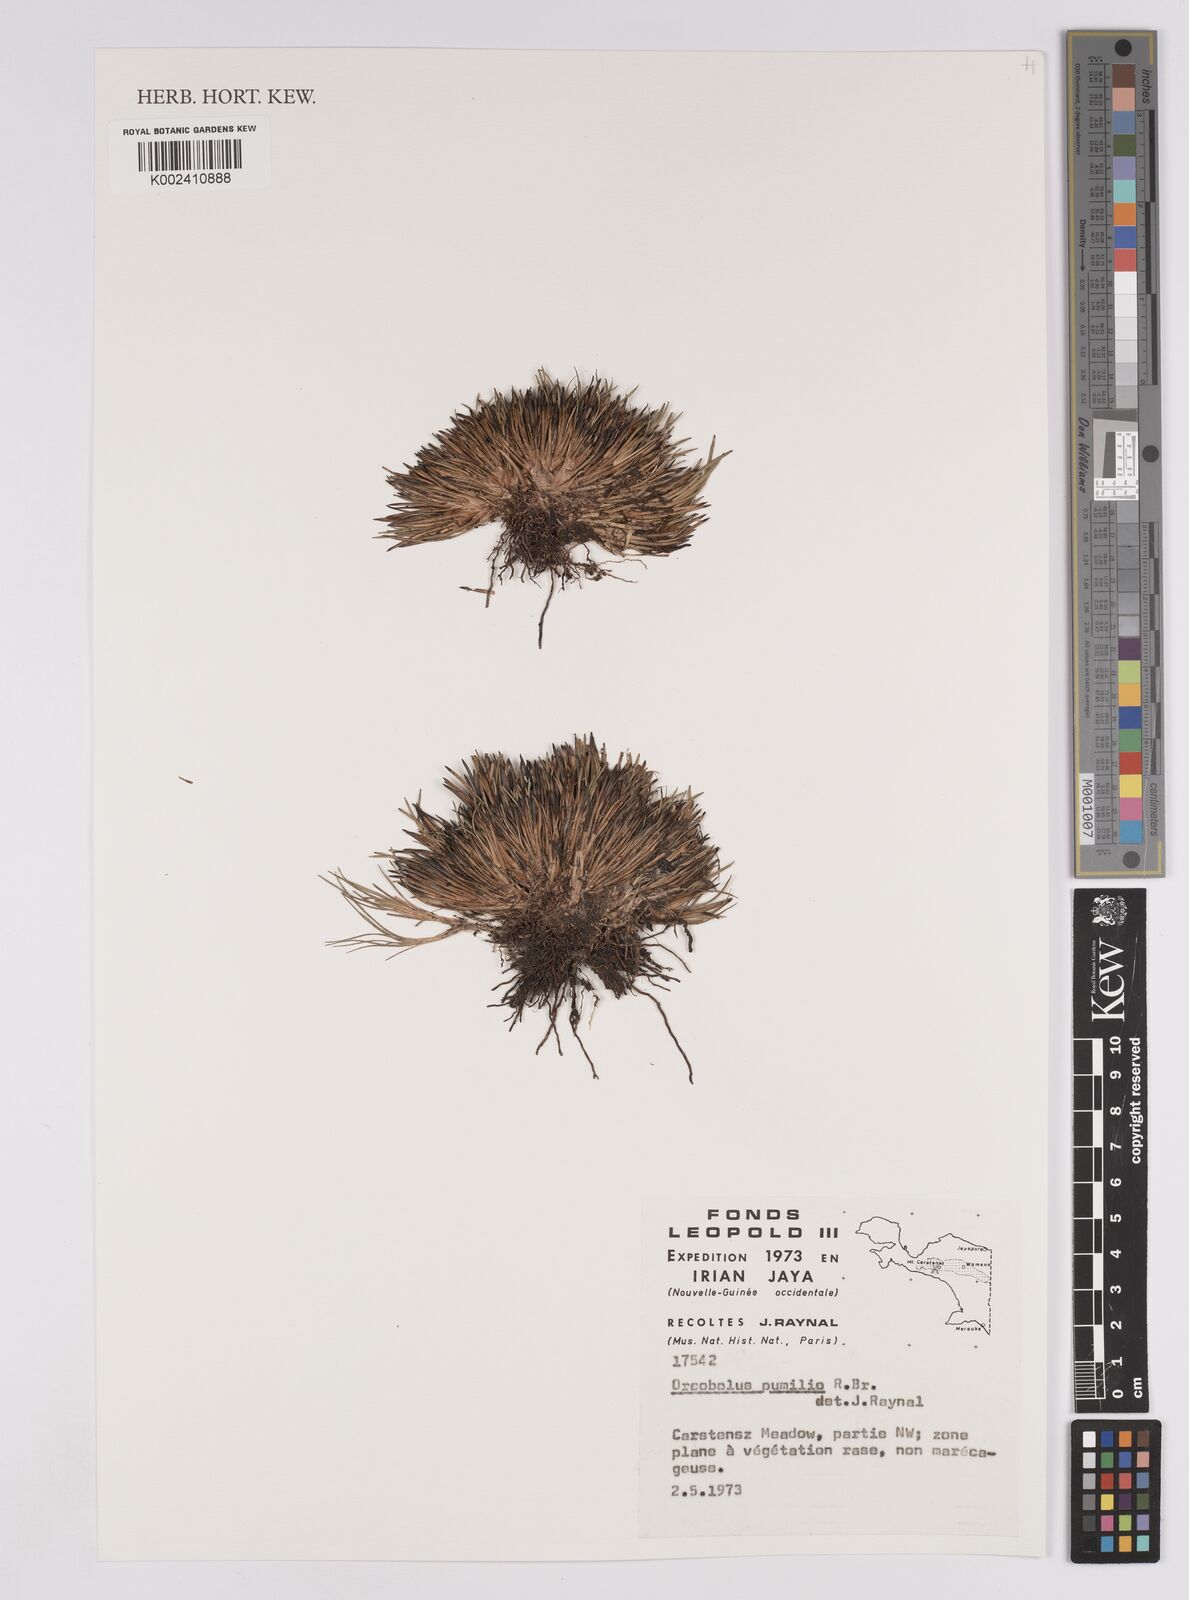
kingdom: Plantae
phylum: Tracheophyta
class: Liliopsida
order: Poales
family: Cyperaceae
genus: Oreobolus
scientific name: Oreobolus pumilio
